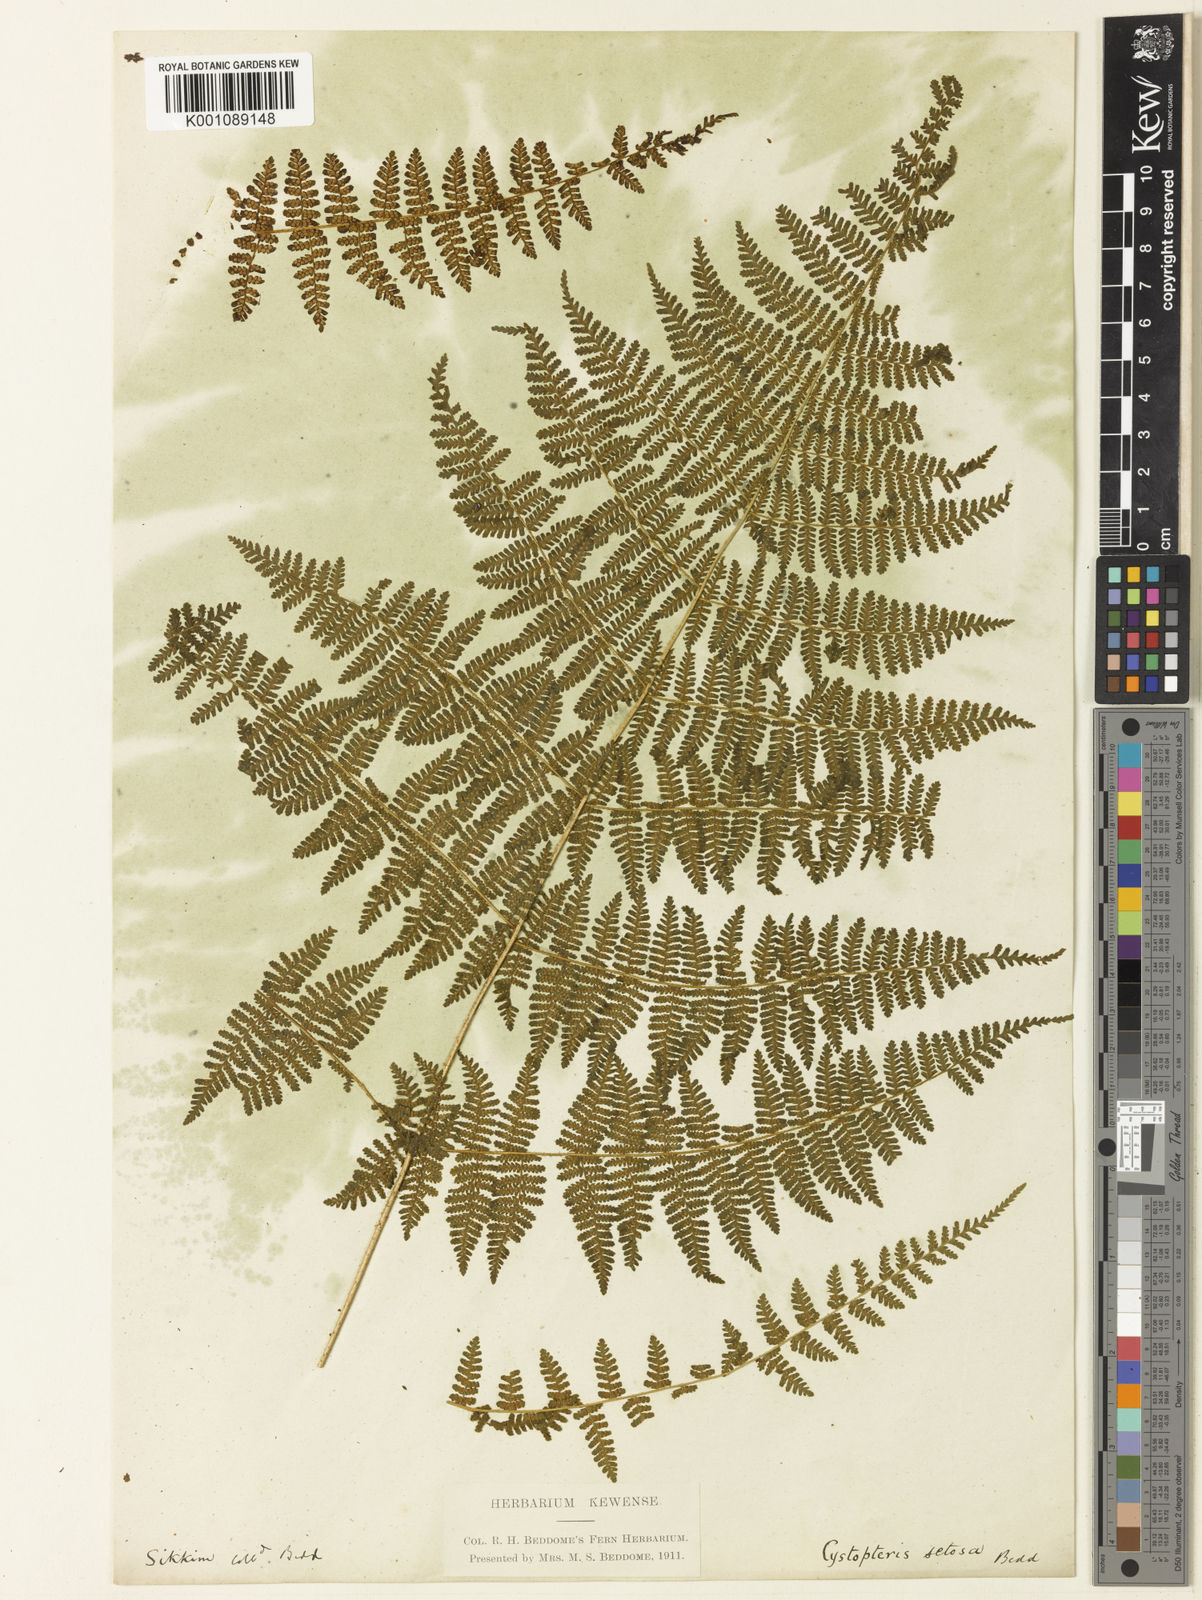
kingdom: Plantae
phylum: Tracheophyta
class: Polypodiopsida
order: Polypodiales
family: Cystopteridaceae
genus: Acystopteris
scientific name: Acystopteris tenuisecta
